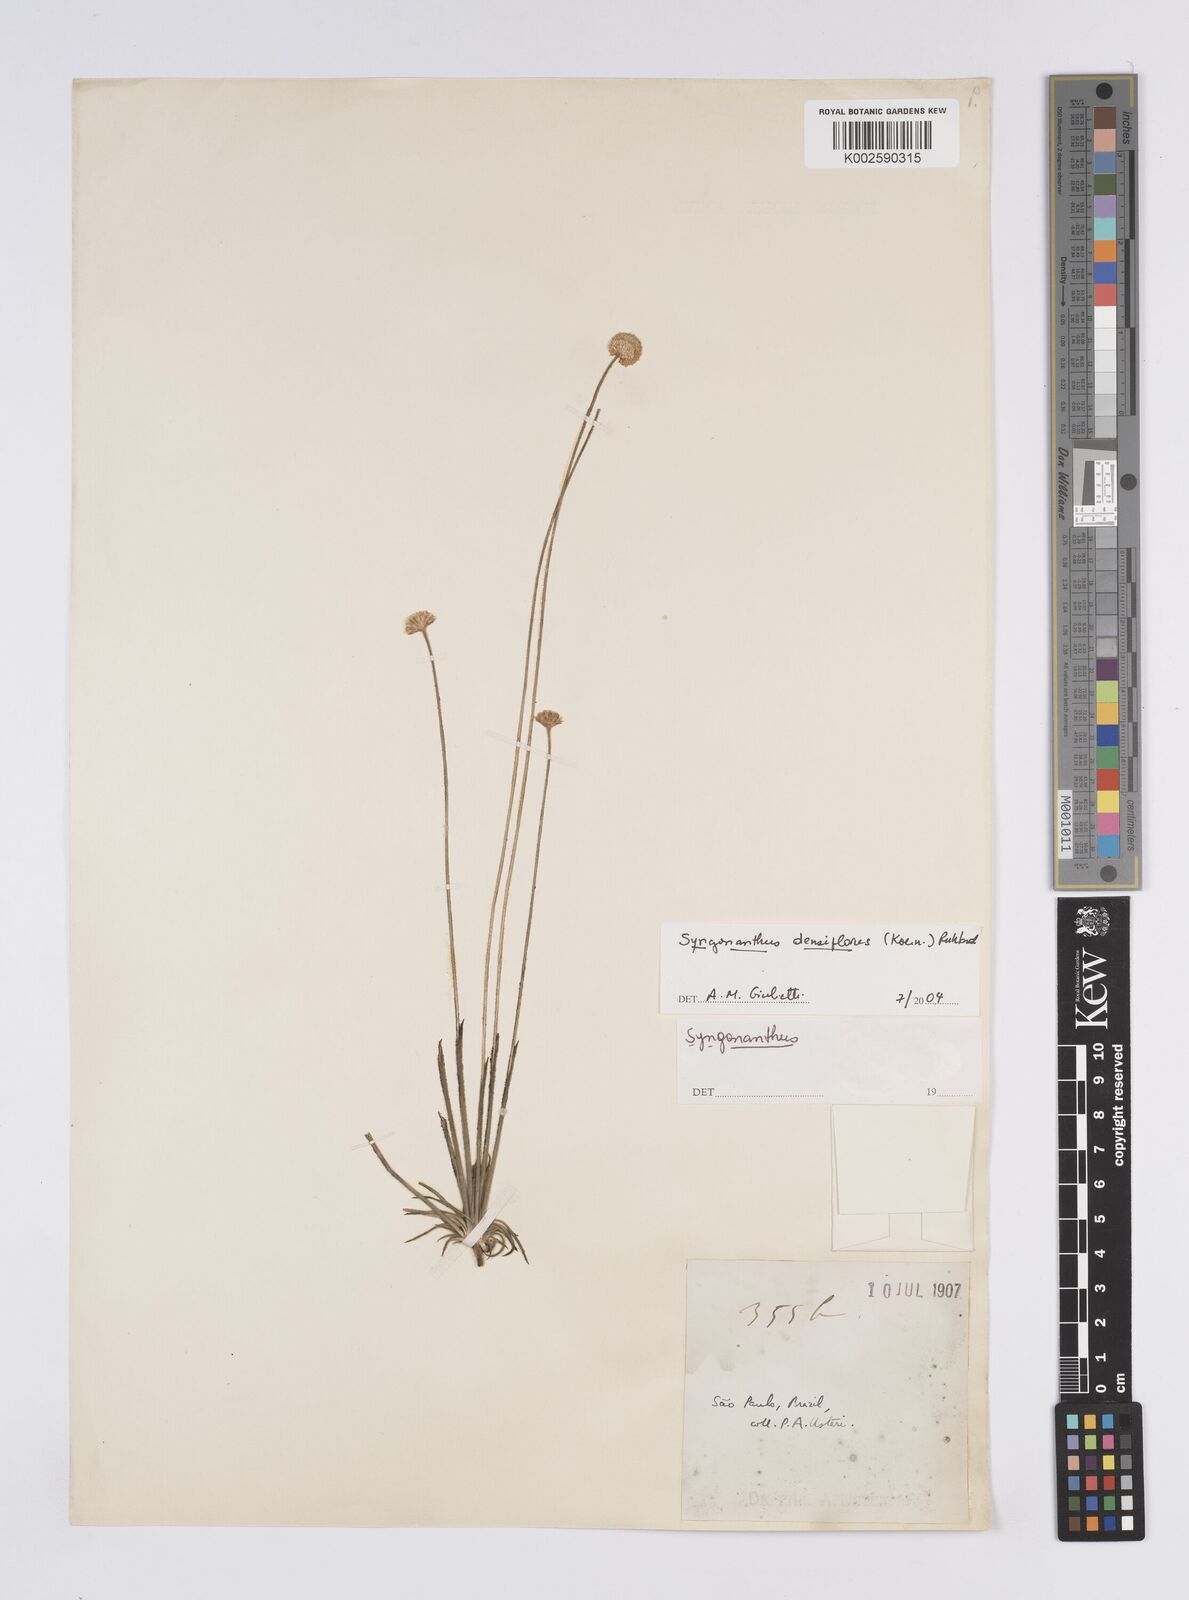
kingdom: Plantae
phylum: Tracheophyta
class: Liliopsida
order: Poales
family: Eriocaulaceae
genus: Syngonanthus
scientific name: Syngonanthus densiflorus
